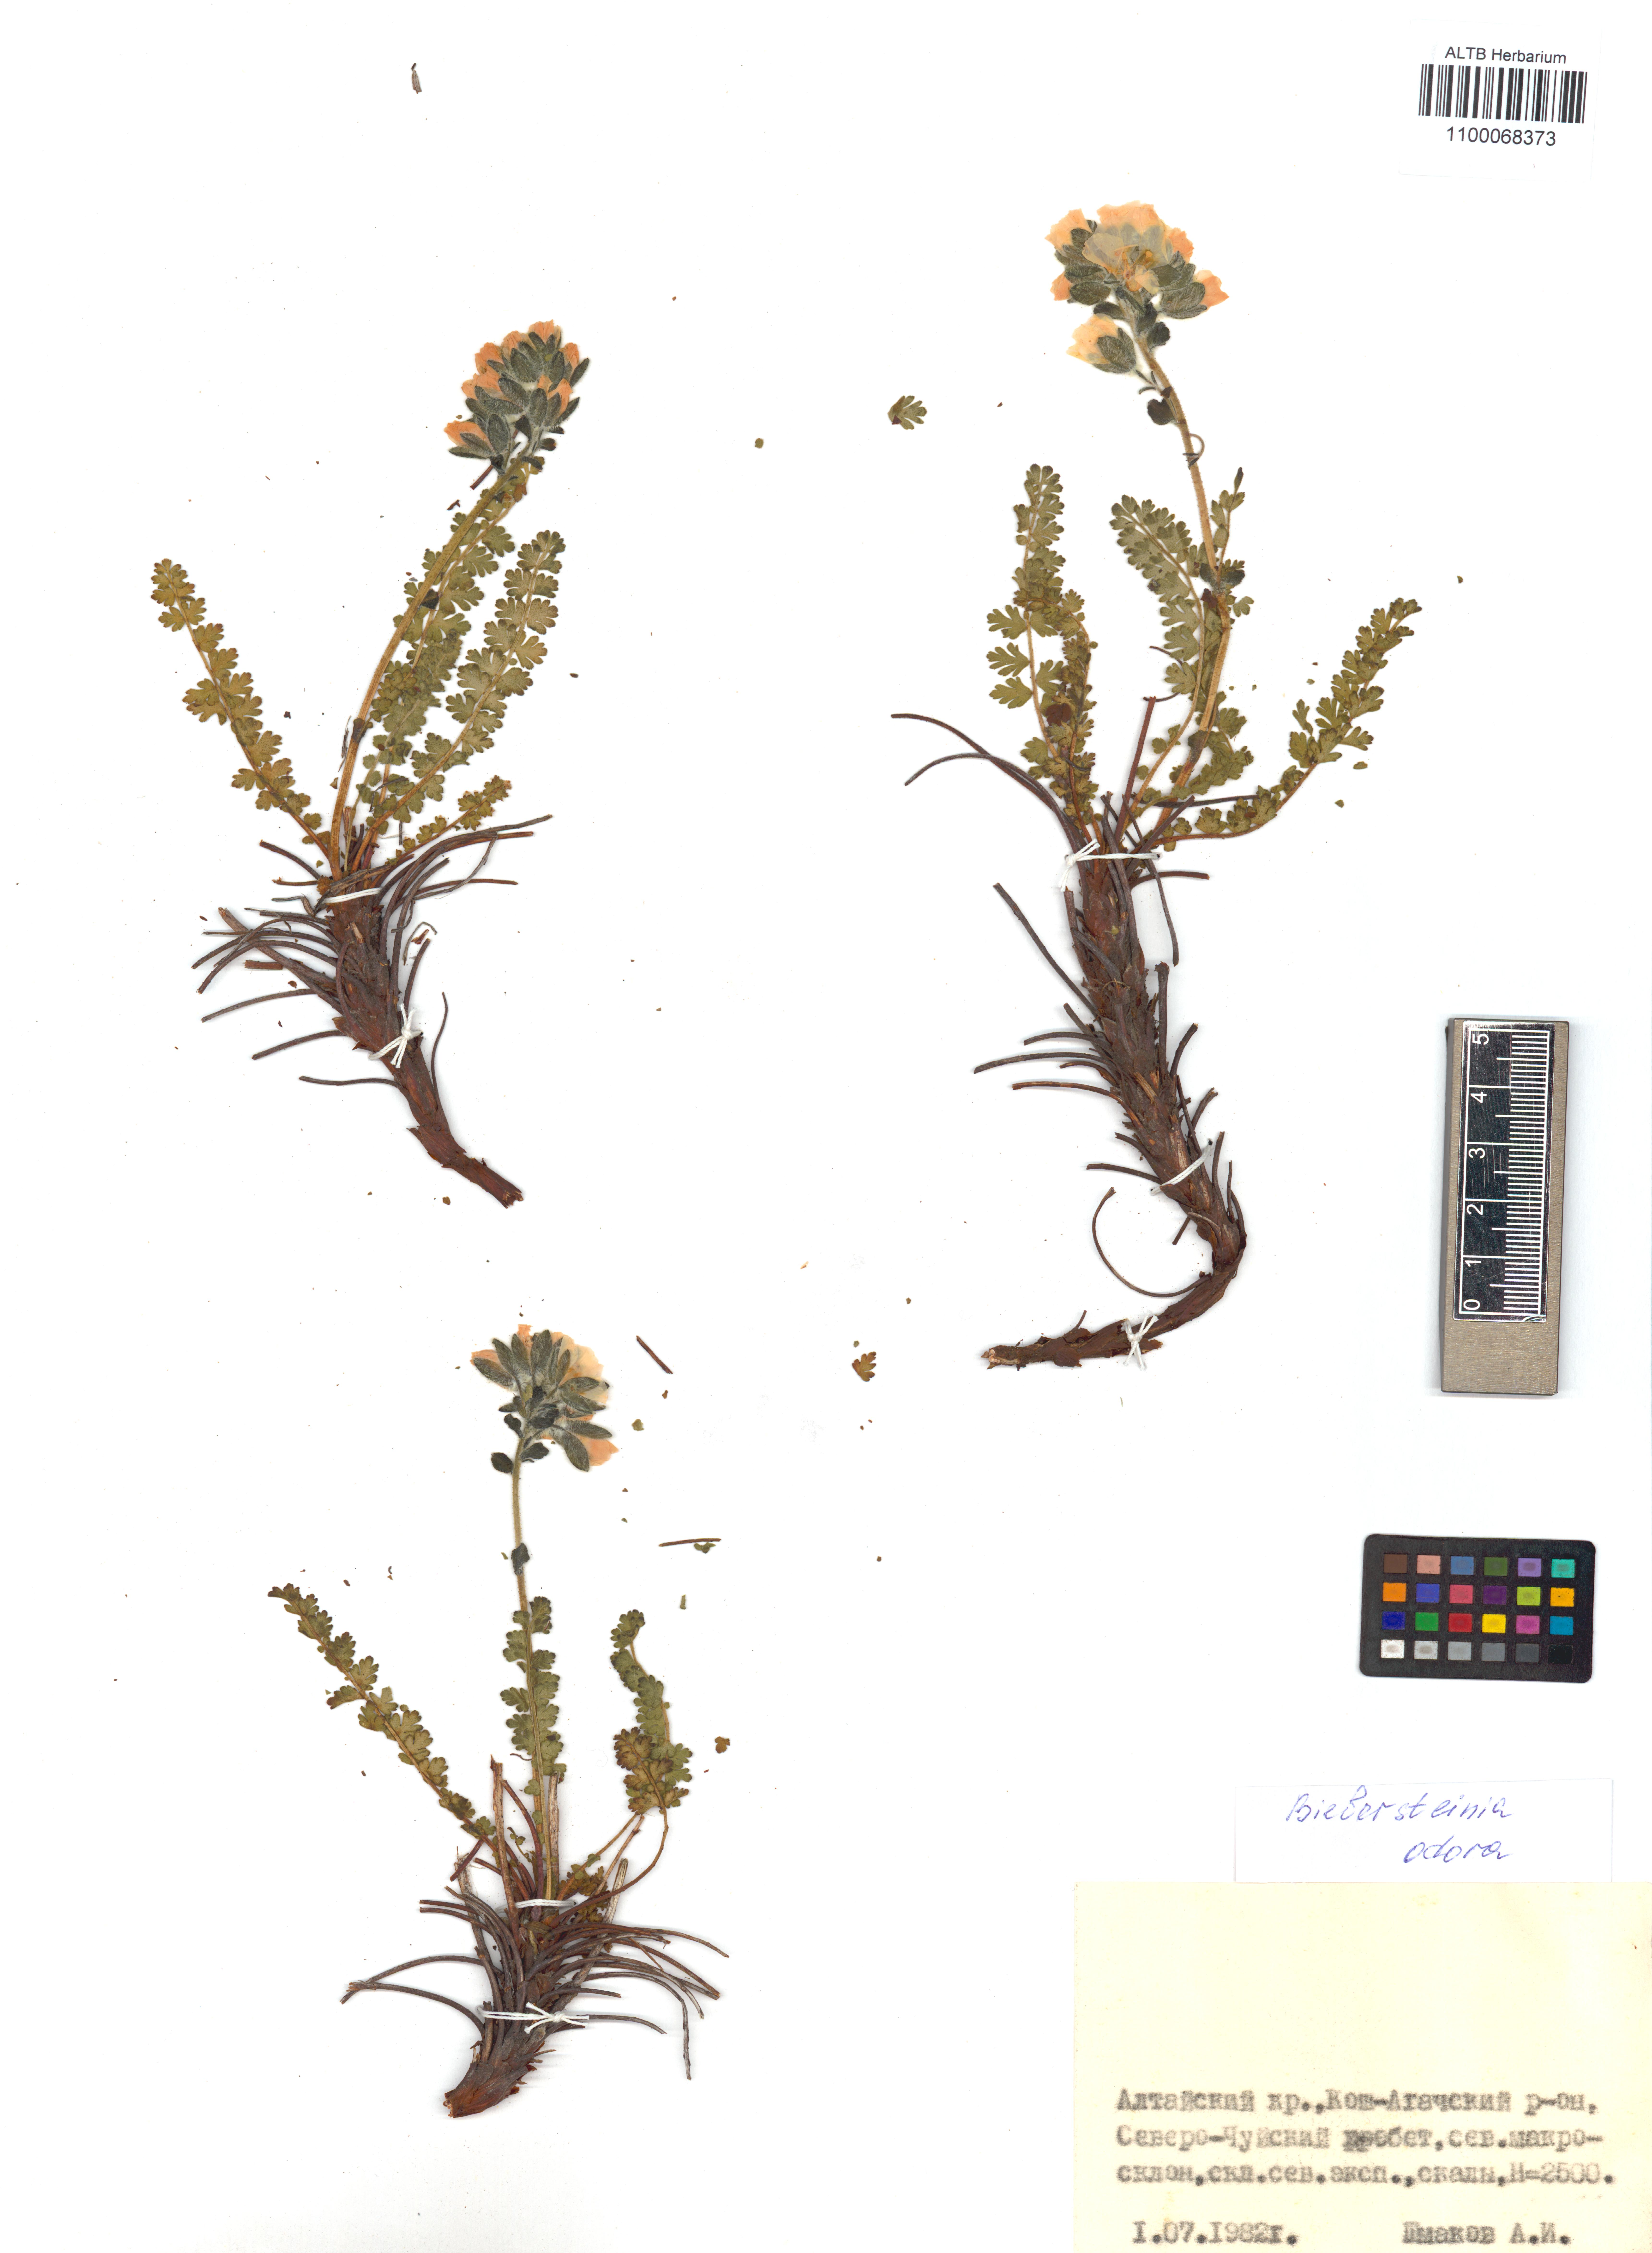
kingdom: Plantae
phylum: Tracheophyta
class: Magnoliopsida
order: Sapindales
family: Biebersteiniaceae
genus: Biebersteinia
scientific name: Biebersteinia odora
